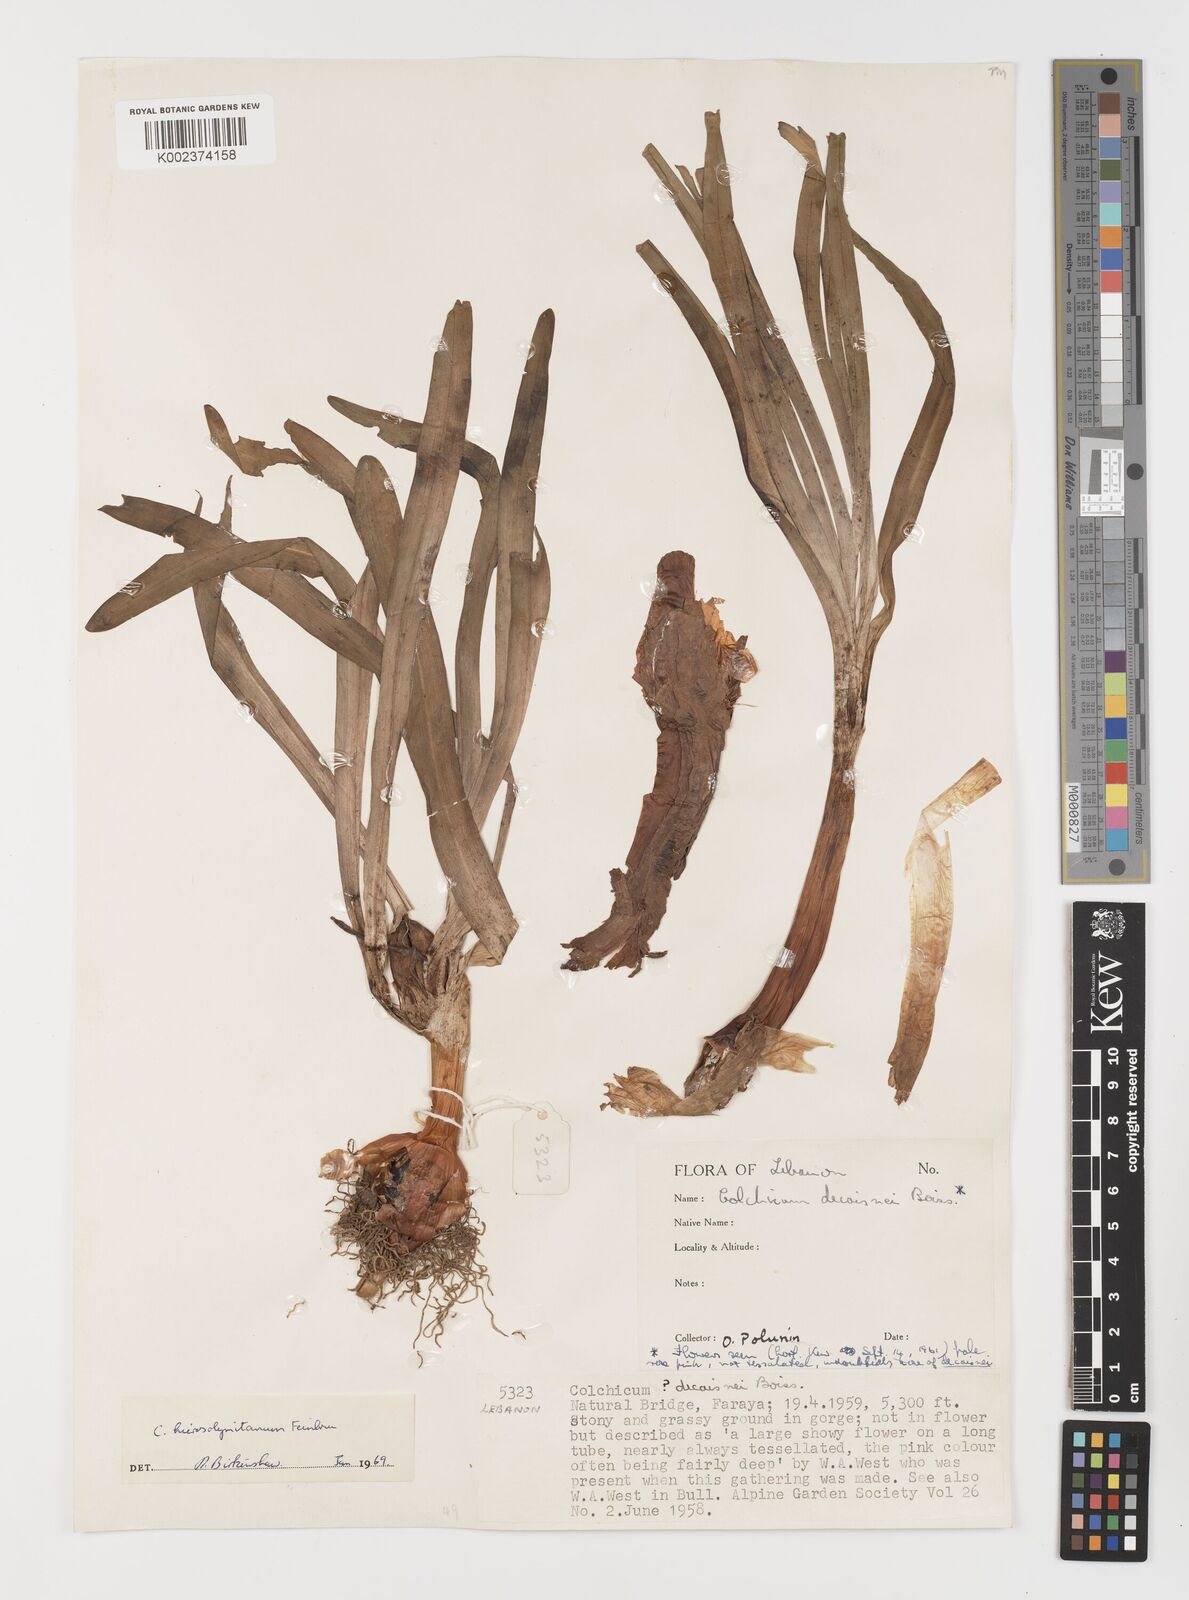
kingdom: Plantae
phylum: Tracheophyta
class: Liliopsida
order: Liliales
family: Colchicaceae
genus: Colchicum
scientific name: Colchicum hierosolymitanum
